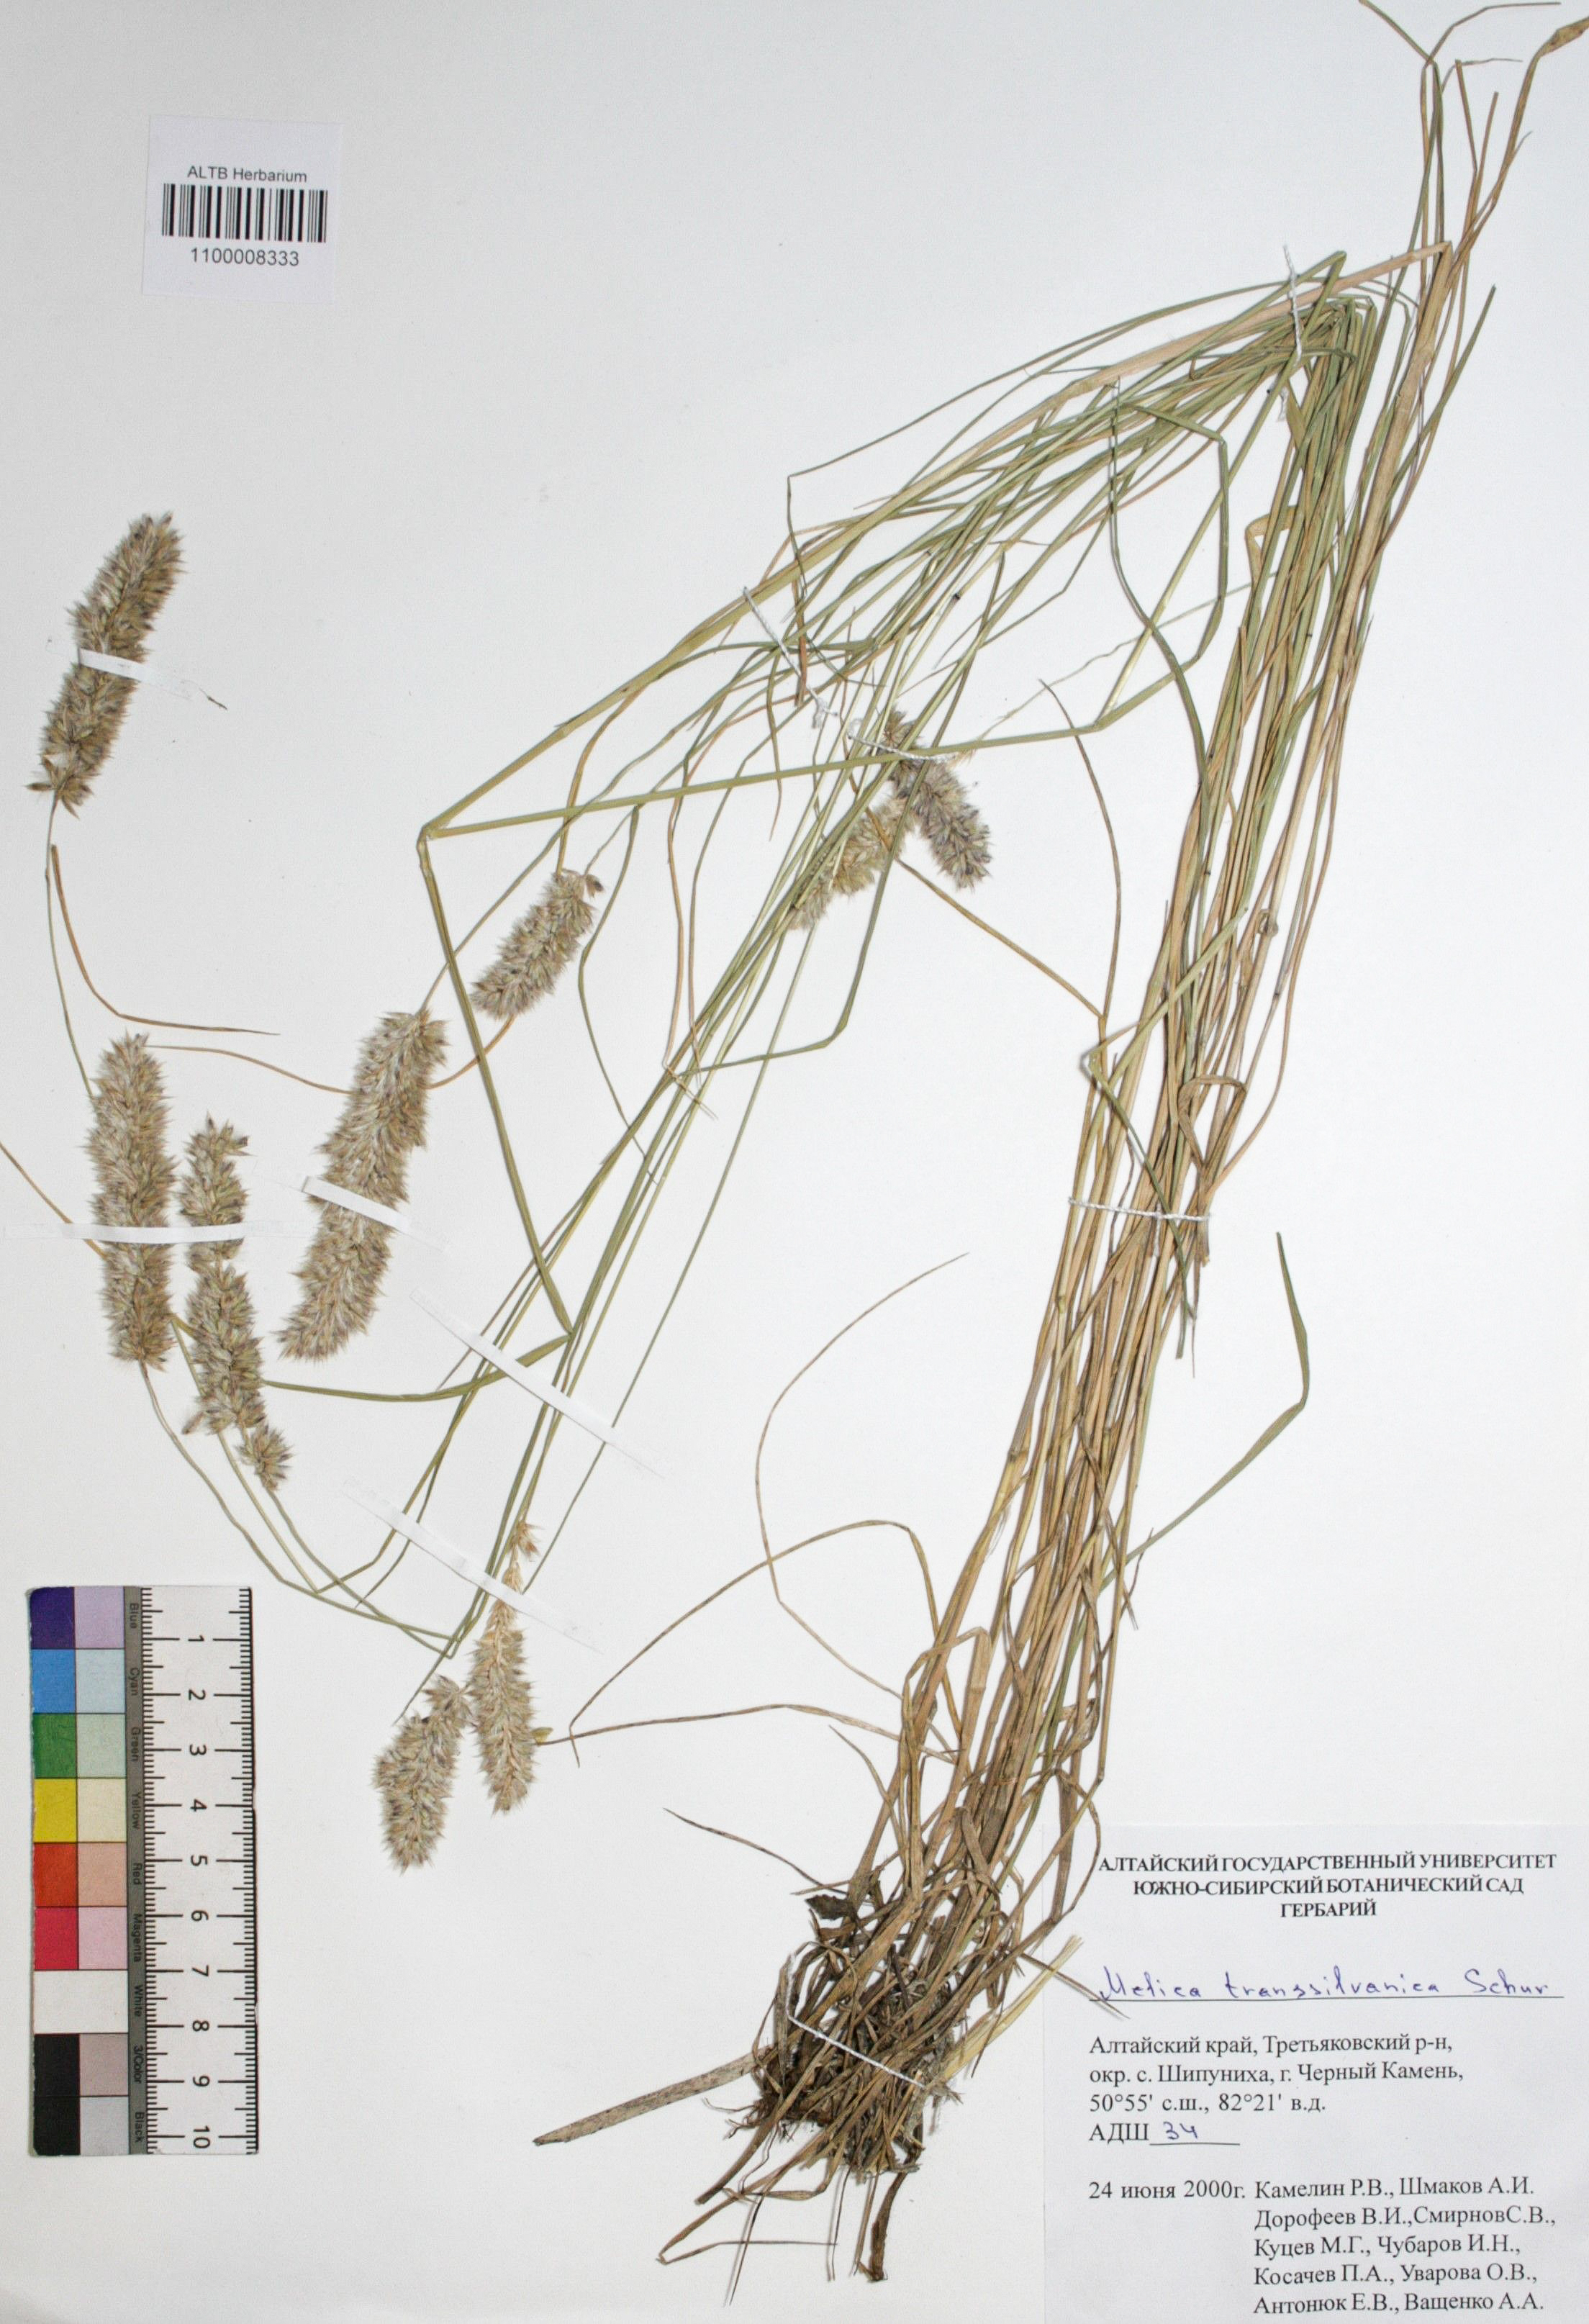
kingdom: Plantae
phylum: Tracheophyta
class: Liliopsida
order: Poales
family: Poaceae
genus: Melica
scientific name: Melica transsilvanica
